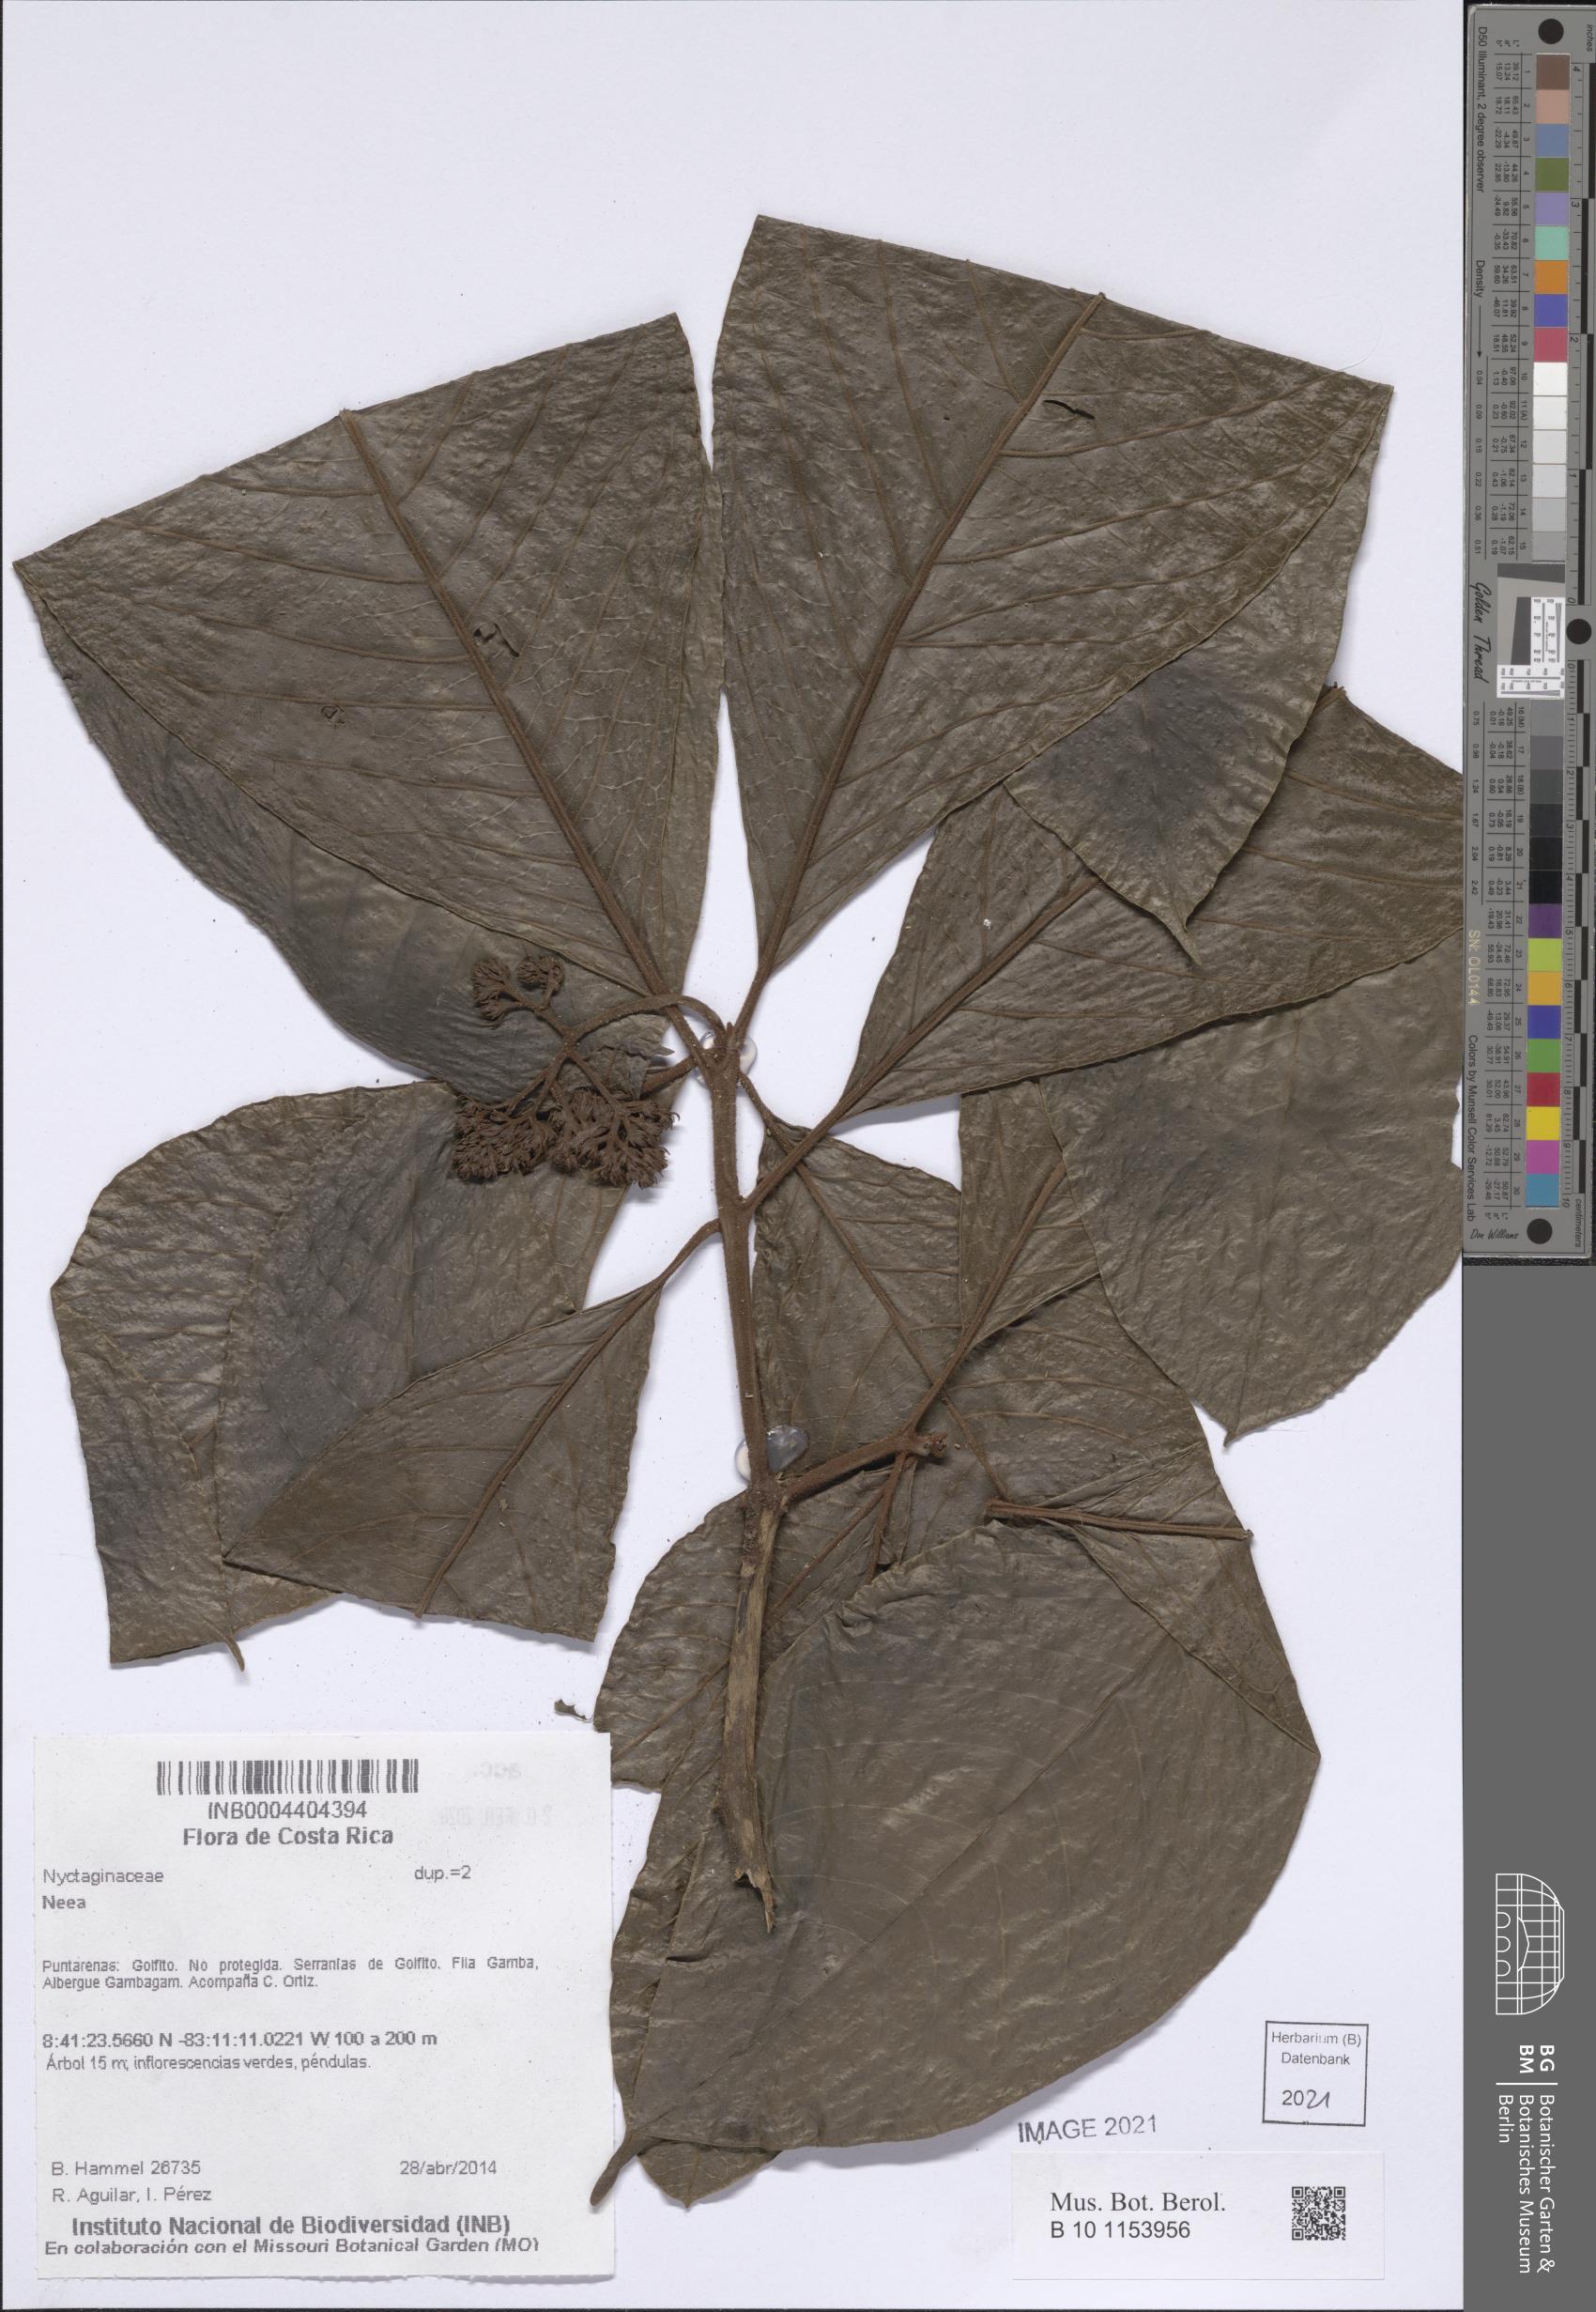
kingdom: Plantae
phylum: Tracheophyta
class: Magnoliopsida
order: Caryophyllales
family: Nyctaginaceae
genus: Neea
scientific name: Neea
